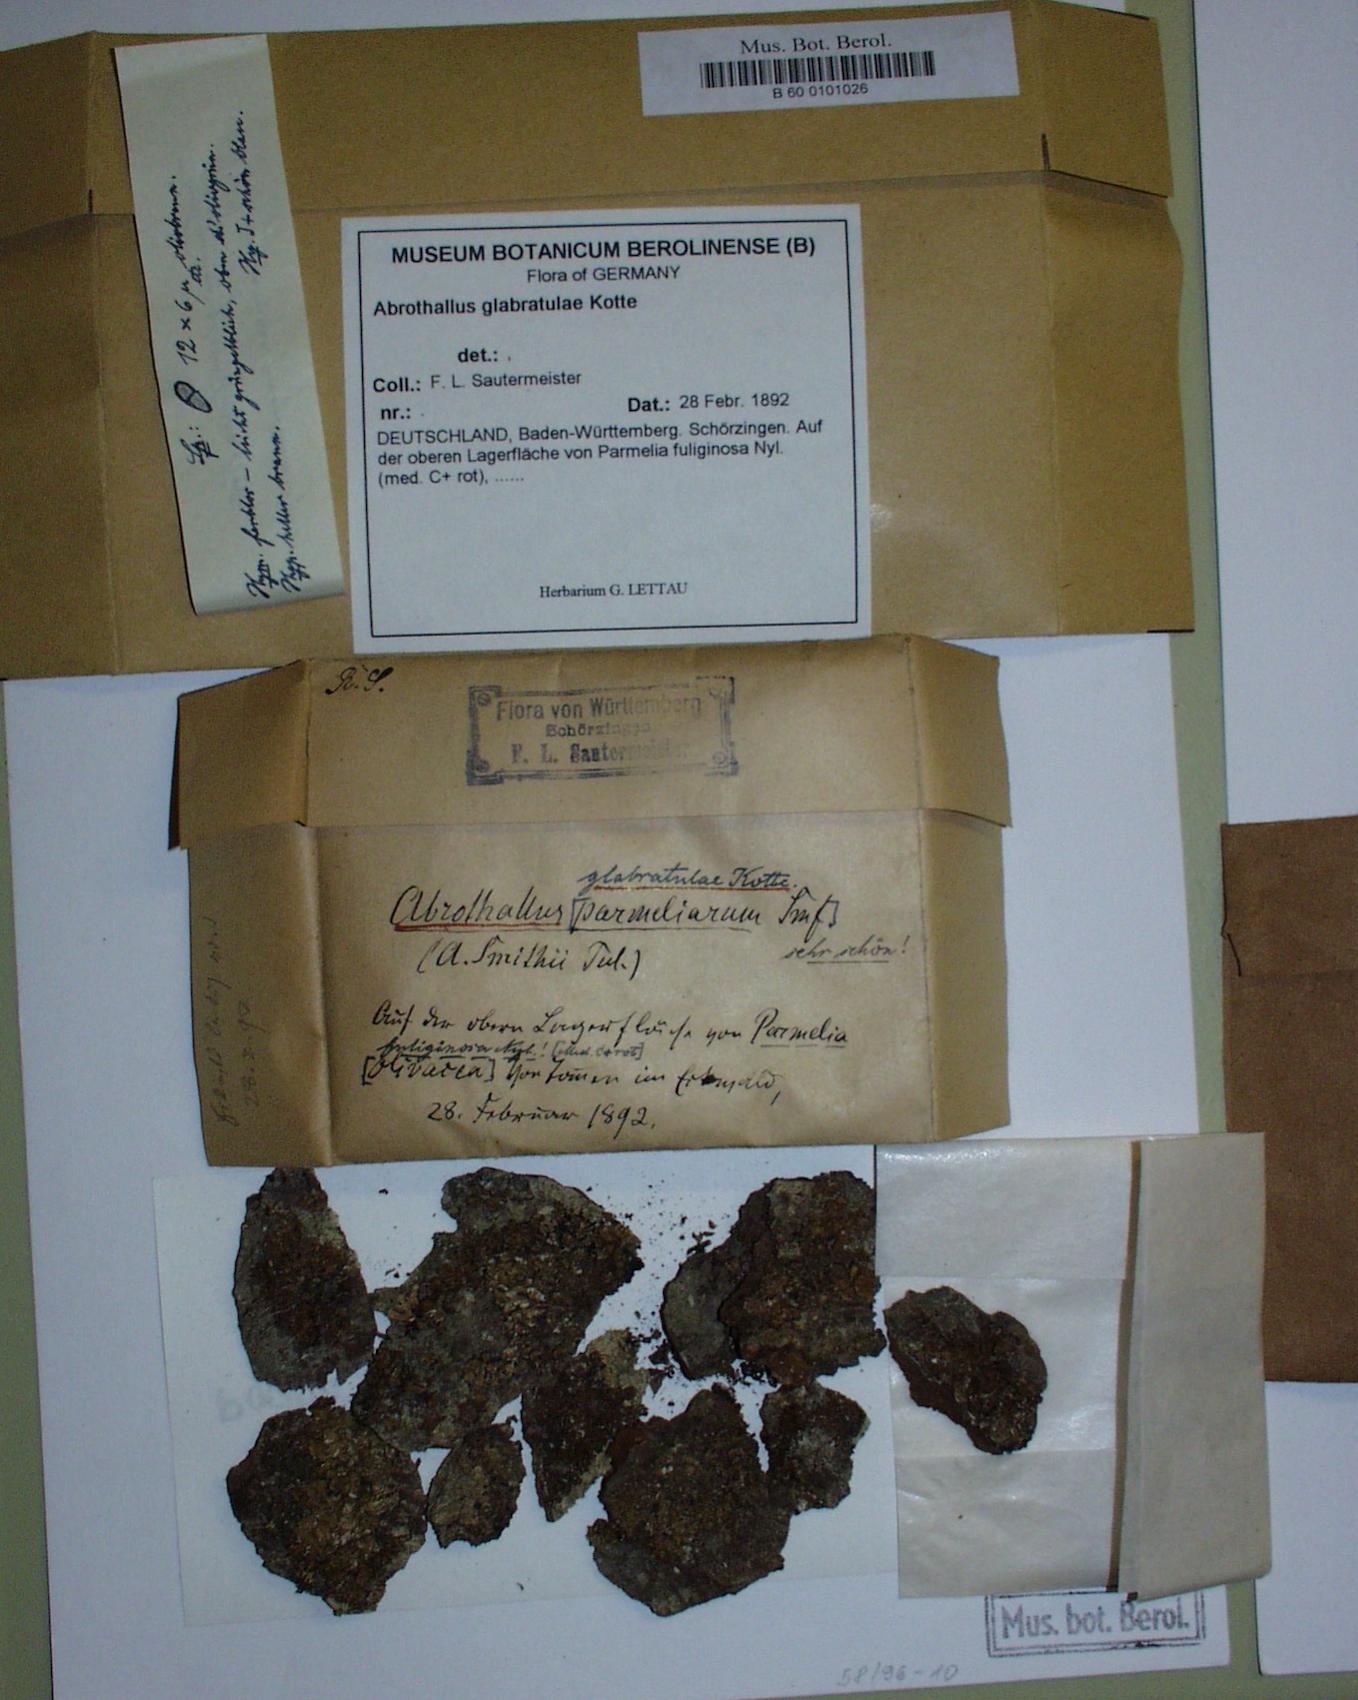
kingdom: Fungi
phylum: Ascomycota
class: Dothideomycetes
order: Abrothallales
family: Abrothallaceae
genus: Abrothallus
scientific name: Abrothallus parmeliarum
